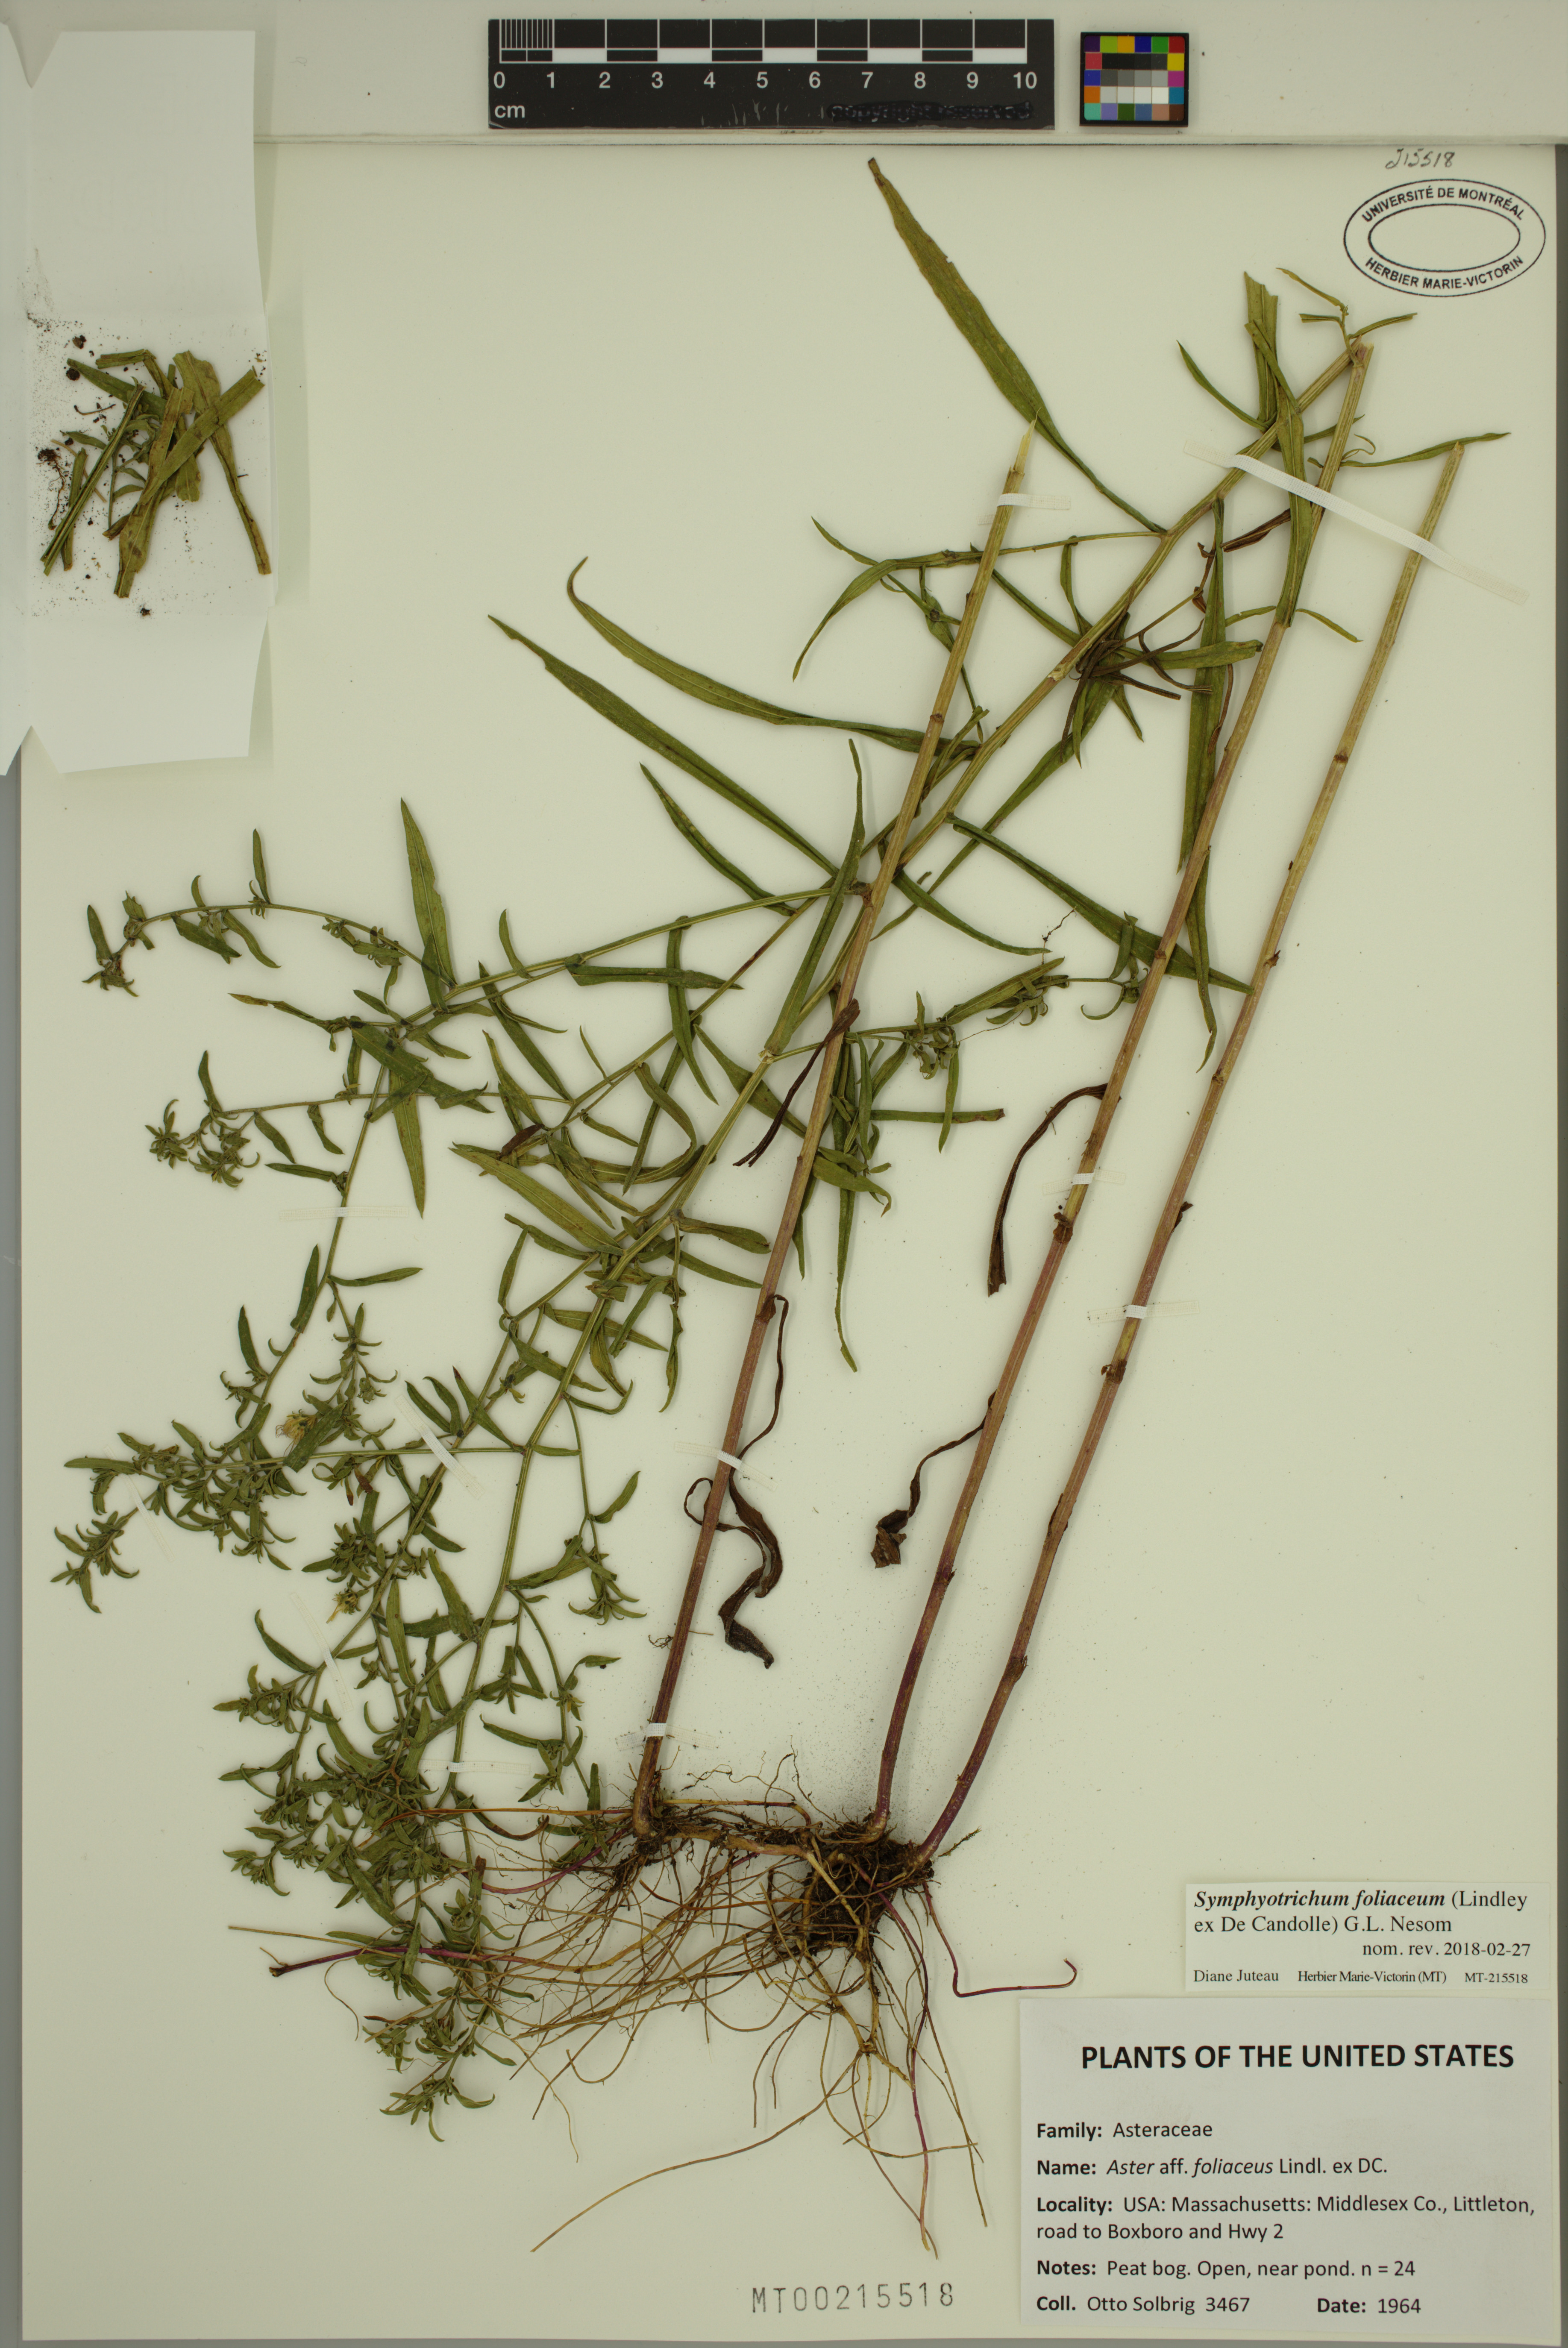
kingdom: Plantae
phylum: Tracheophyta
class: Magnoliopsida
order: Asterales
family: Asteraceae
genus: Symphyotrichum
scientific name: Symphyotrichum foliaceum
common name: Leafy aster
